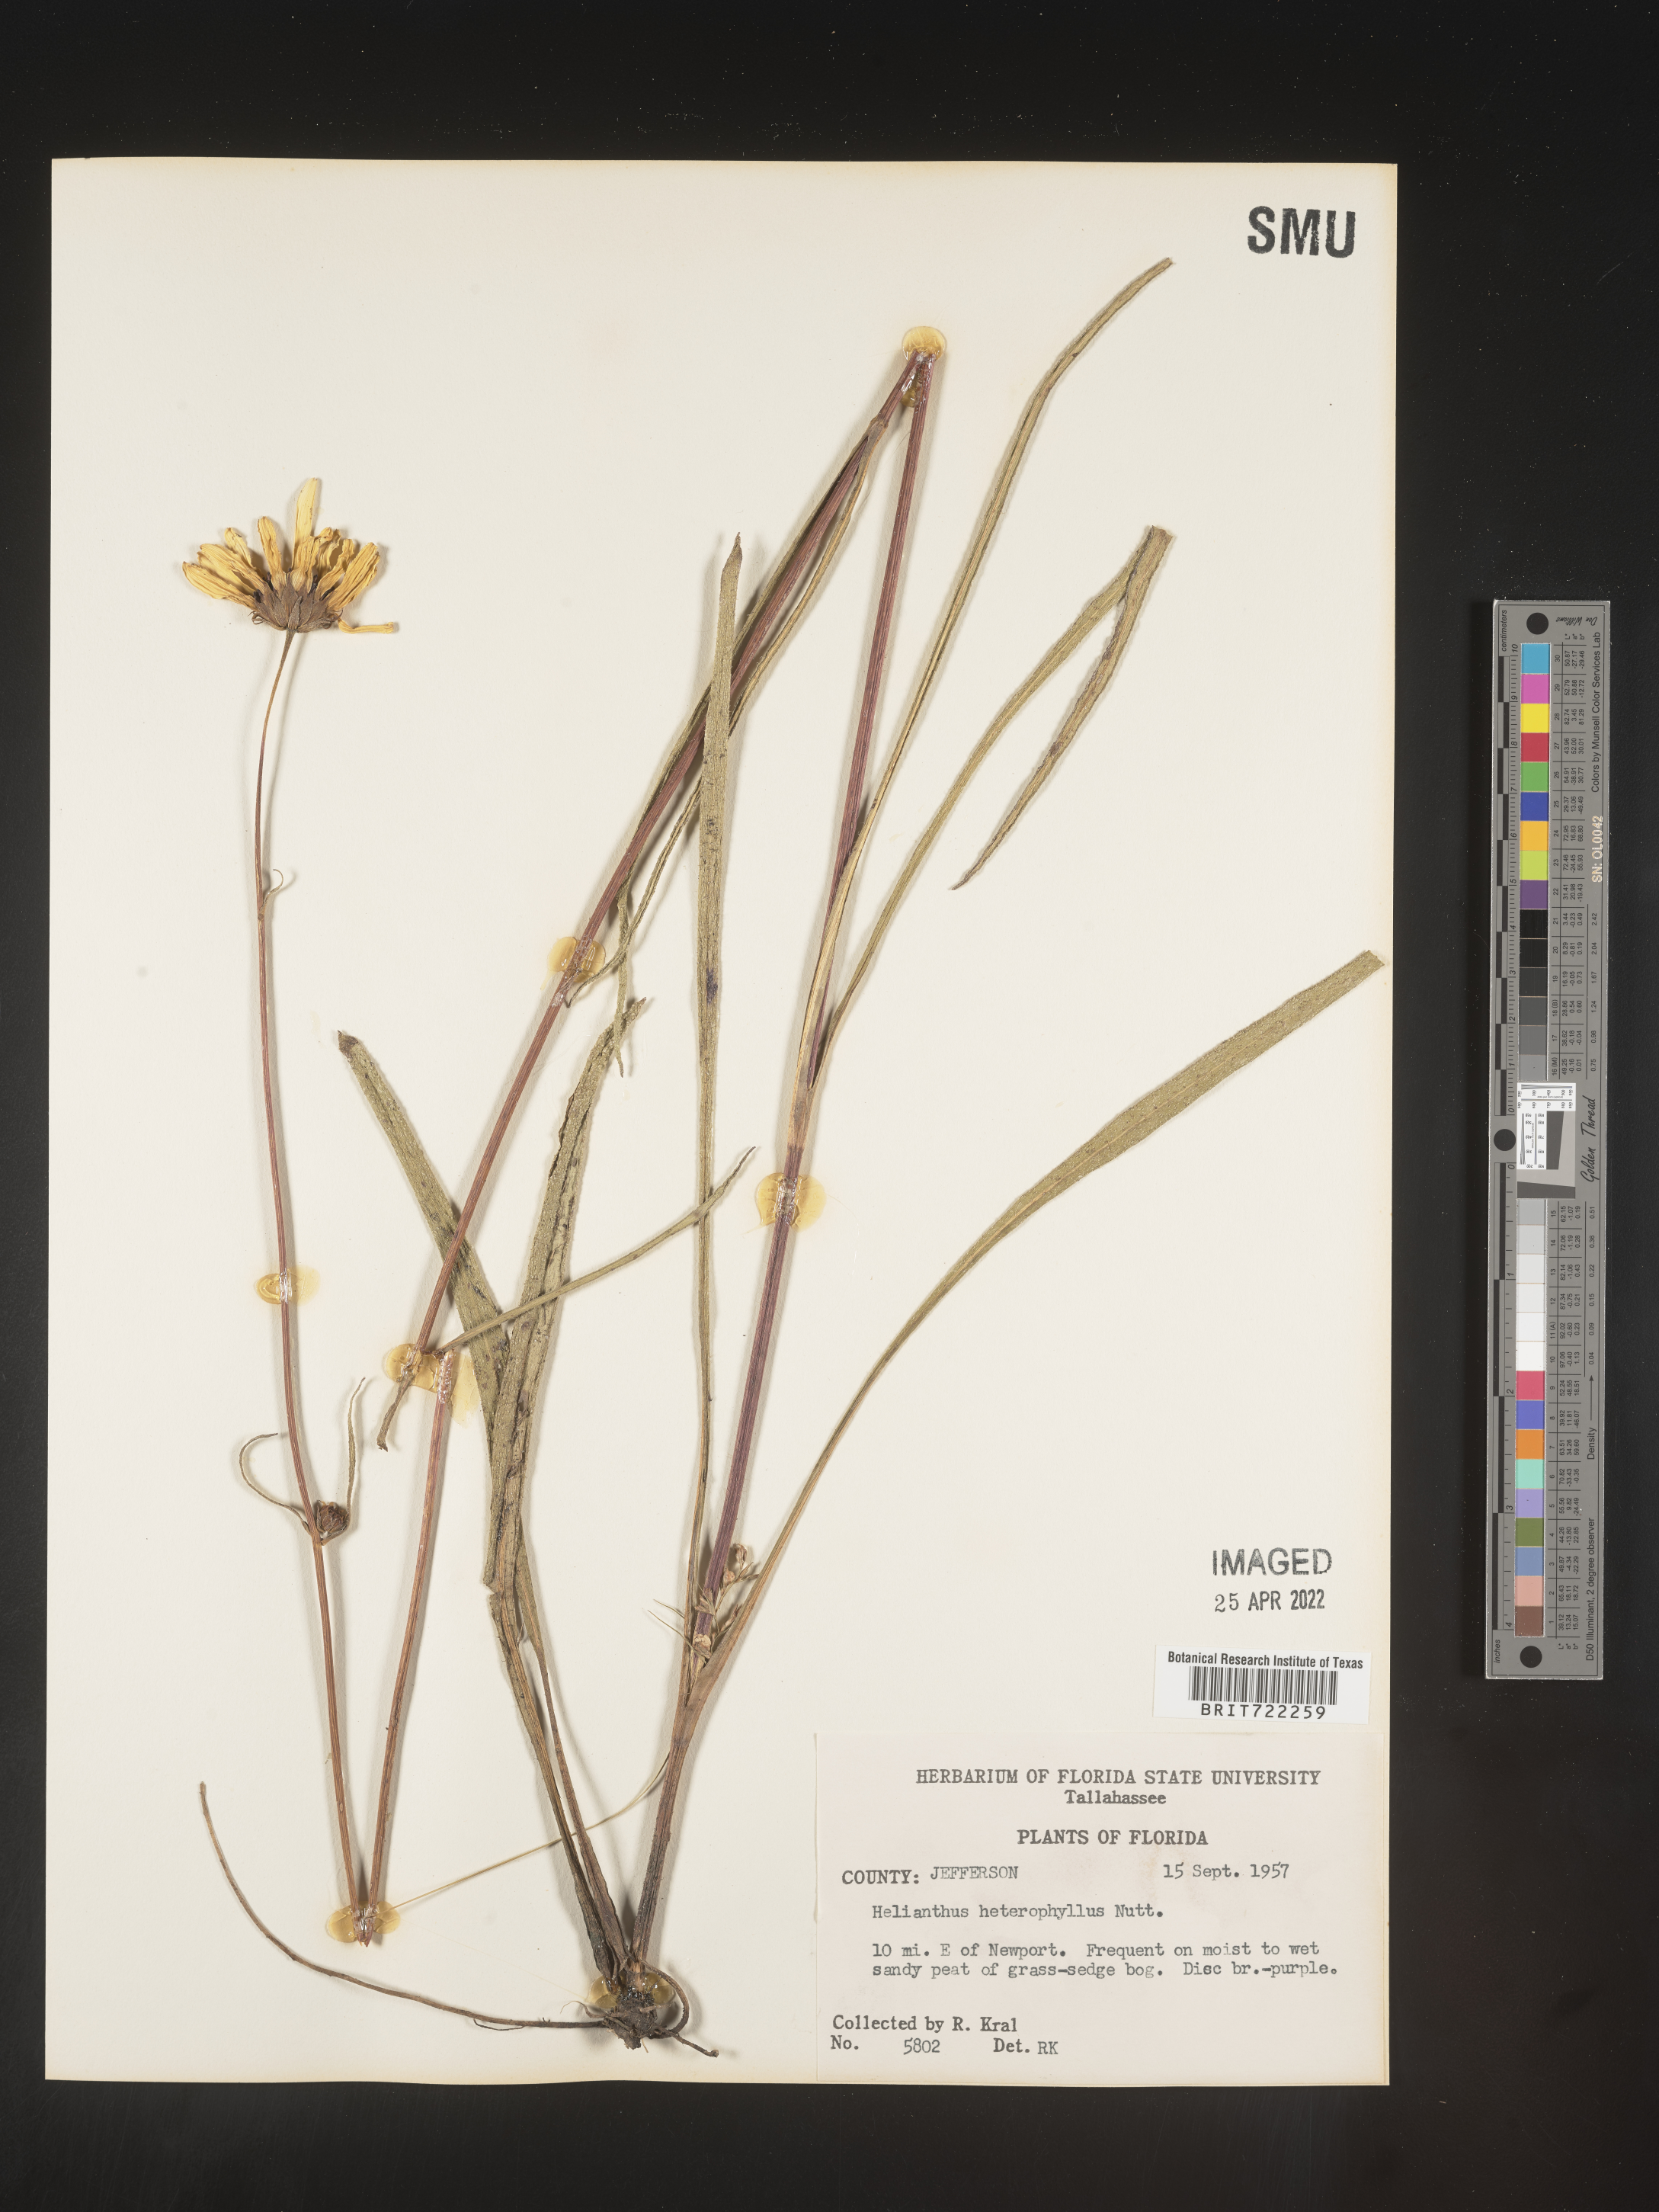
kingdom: Plantae
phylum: Tracheophyta
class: Magnoliopsida
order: Asterales
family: Asteraceae
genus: Helianthus
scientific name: Helianthus heterophyllus
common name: Wetland sunflower
